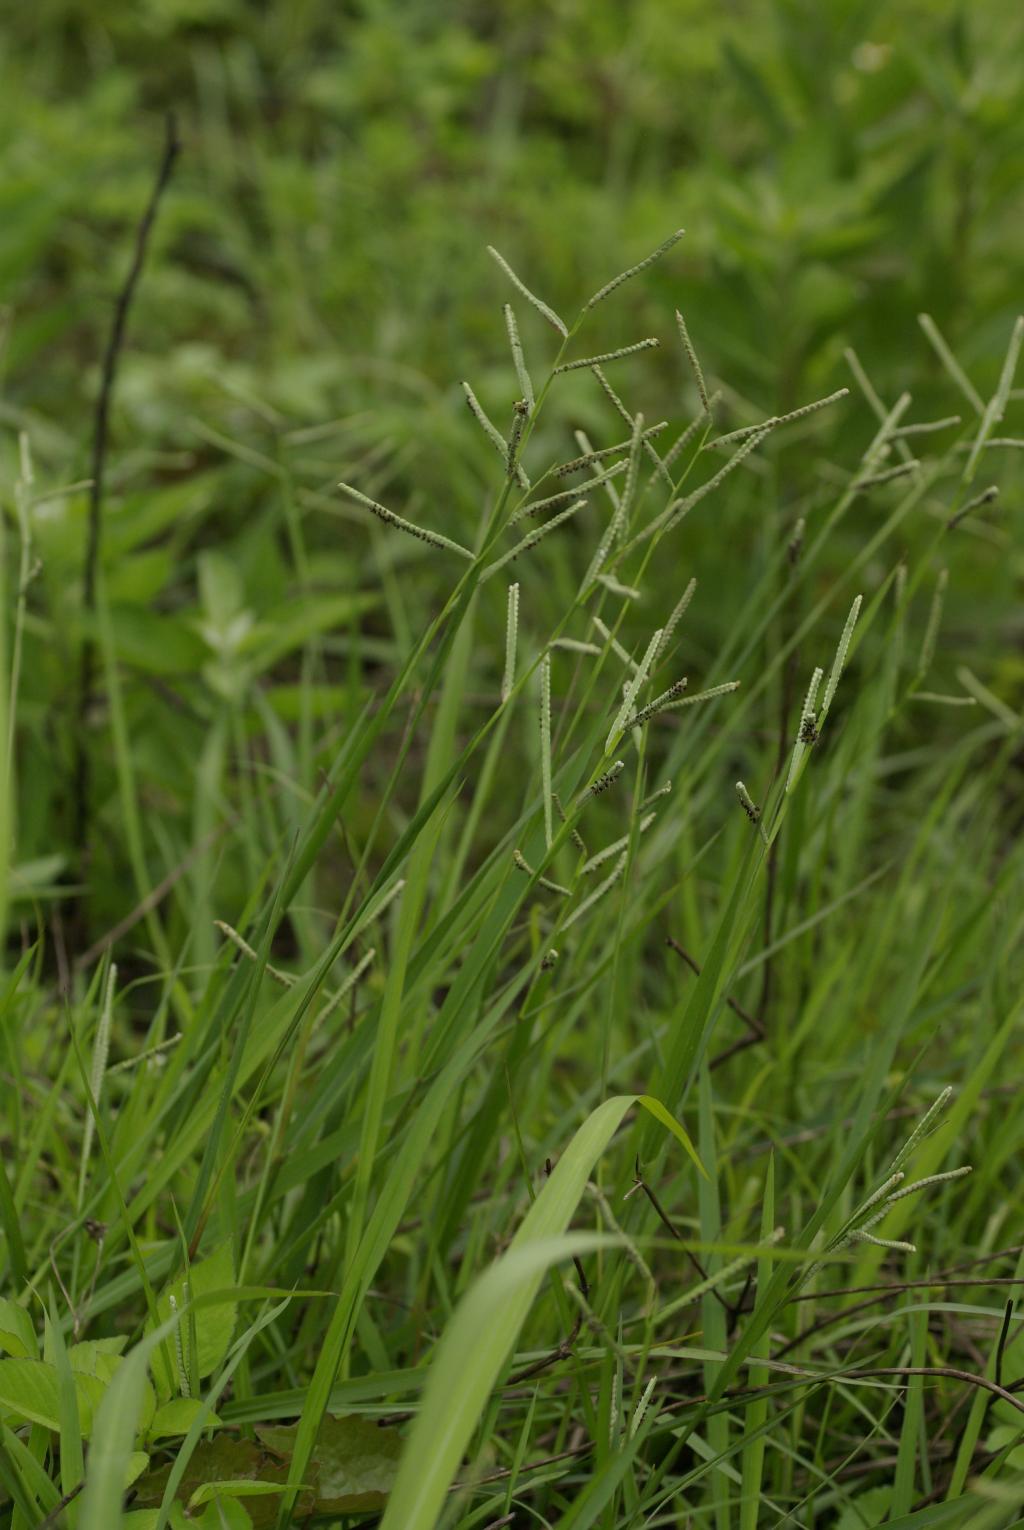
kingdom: Plantae
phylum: Tracheophyta
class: Liliopsida
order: Poales
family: Poaceae
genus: Paspalum
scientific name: Paspalum scrobiculatum
